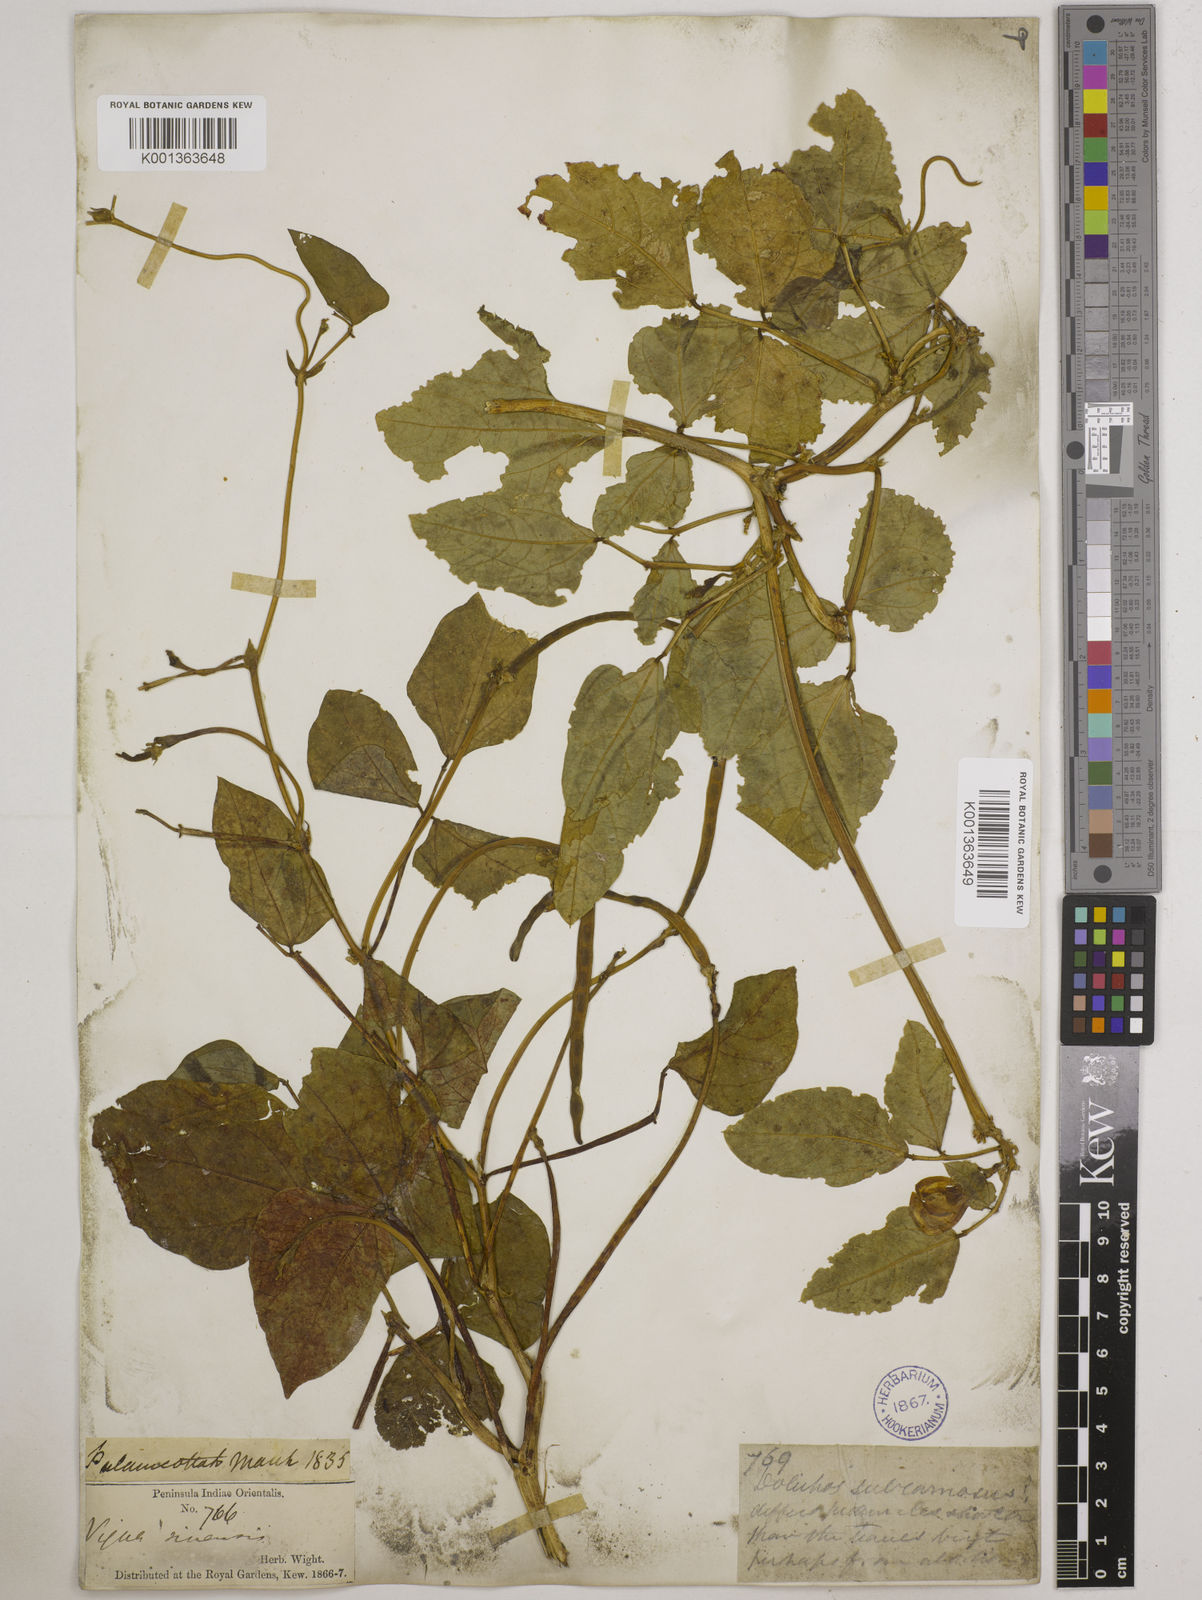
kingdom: Plantae
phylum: Tracheophyta
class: Magnoliopsida
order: Fabales
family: Fabaceae
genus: Vigna
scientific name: Vigna unguiculata
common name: Cowpea
